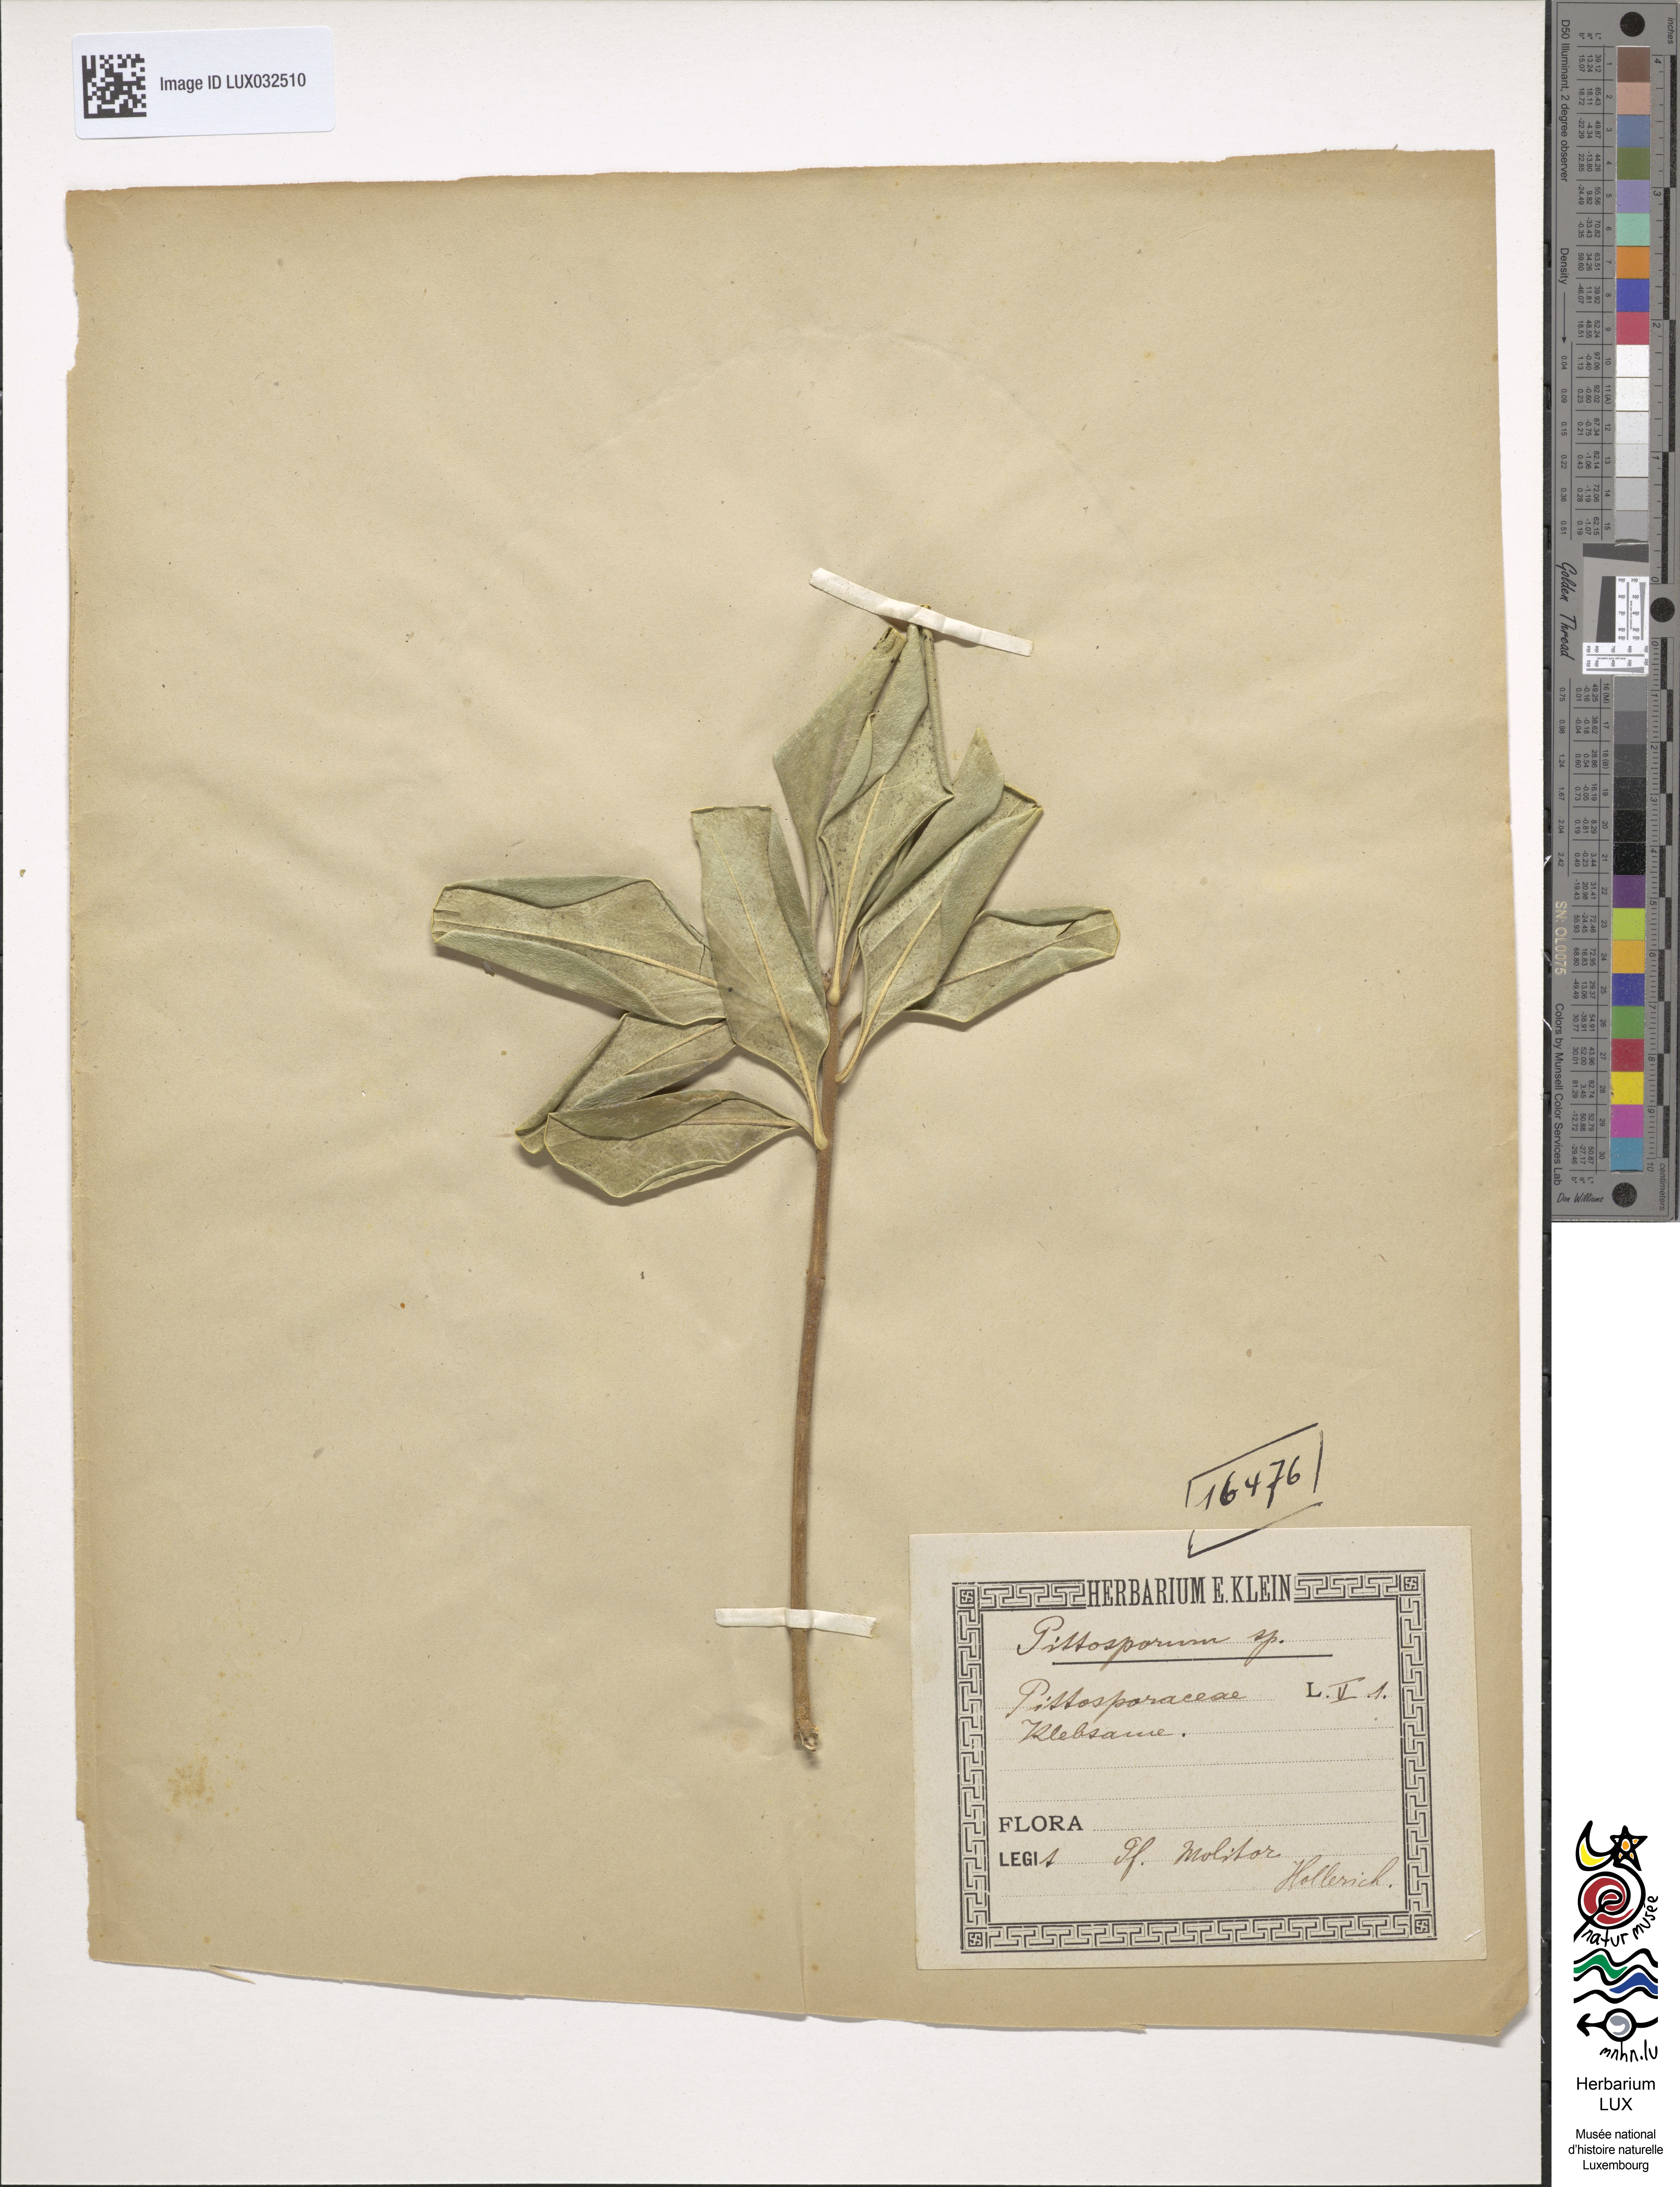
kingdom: Plantae
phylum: Tracheophyta
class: Magnoliopsida
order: Apiales
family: Pittosporaceae
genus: Pittosporum
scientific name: Pittosporum
